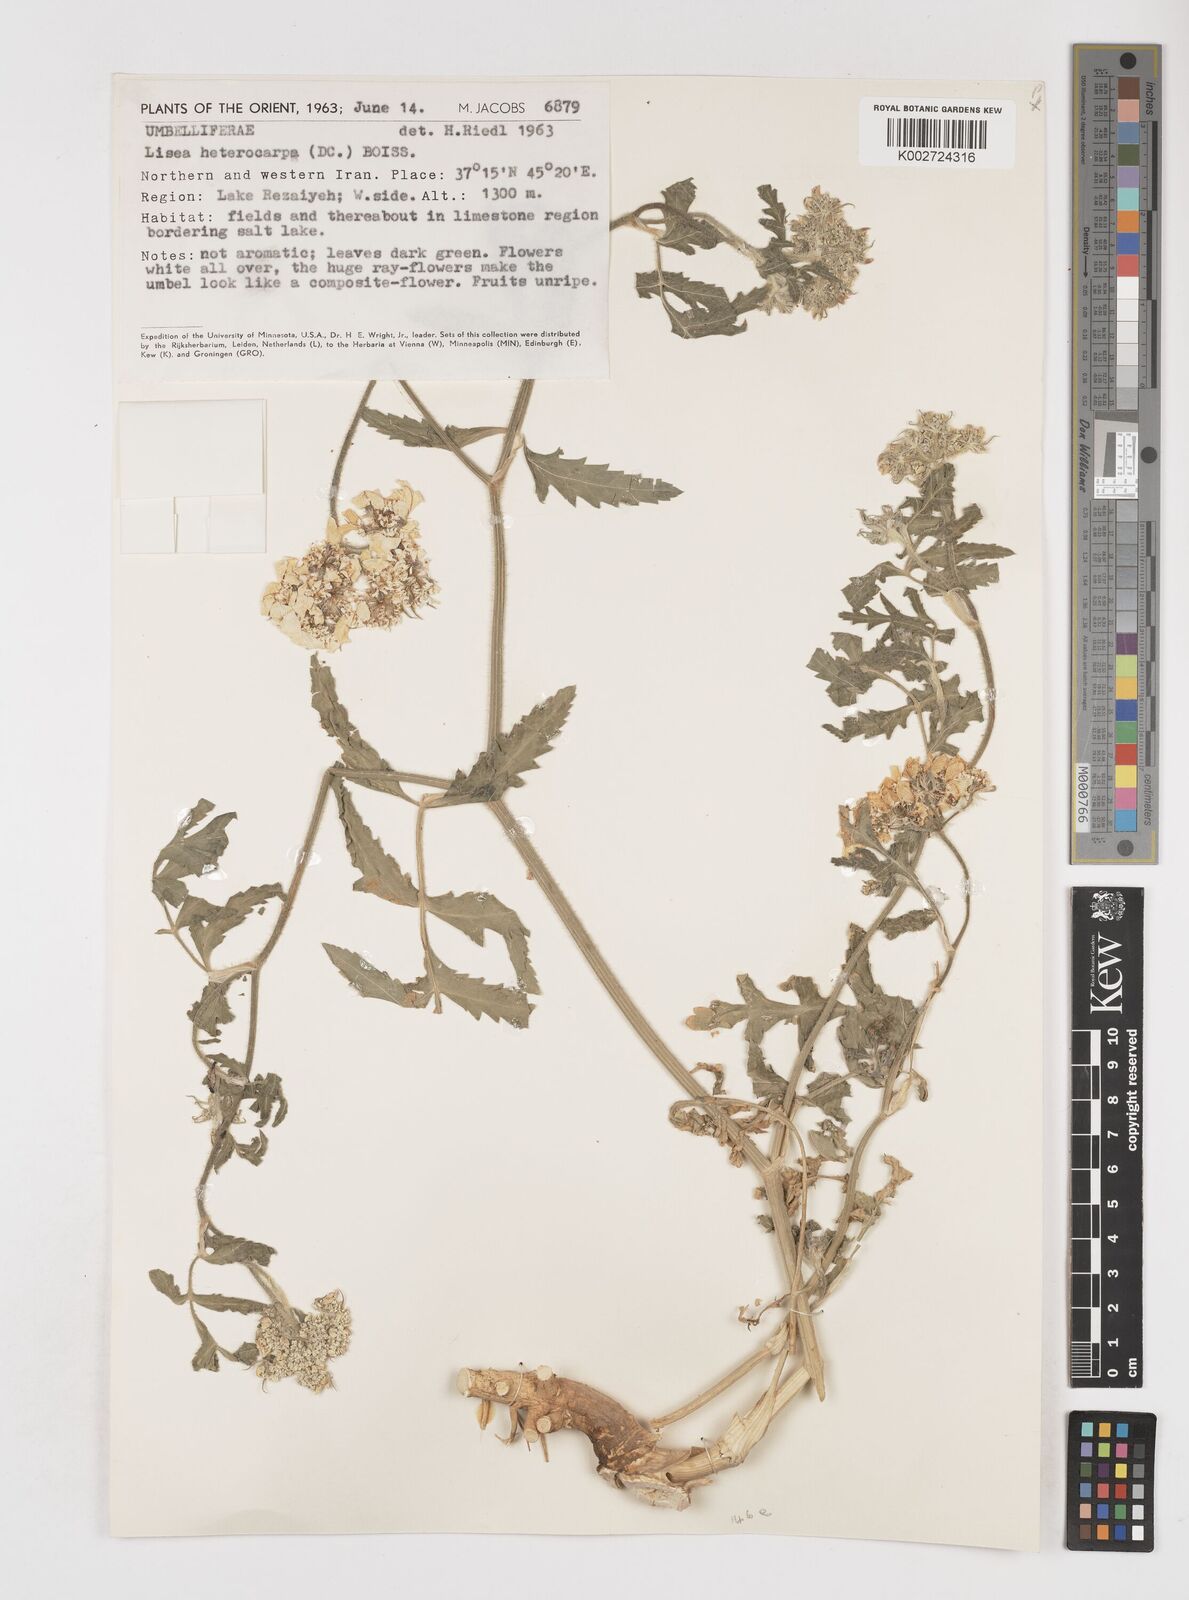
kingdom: Plantae
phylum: Tracheophyta
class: Magnoliopsida
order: Apiales
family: Apiaceae
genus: Lisaea
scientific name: Lisaea heterocarpa
